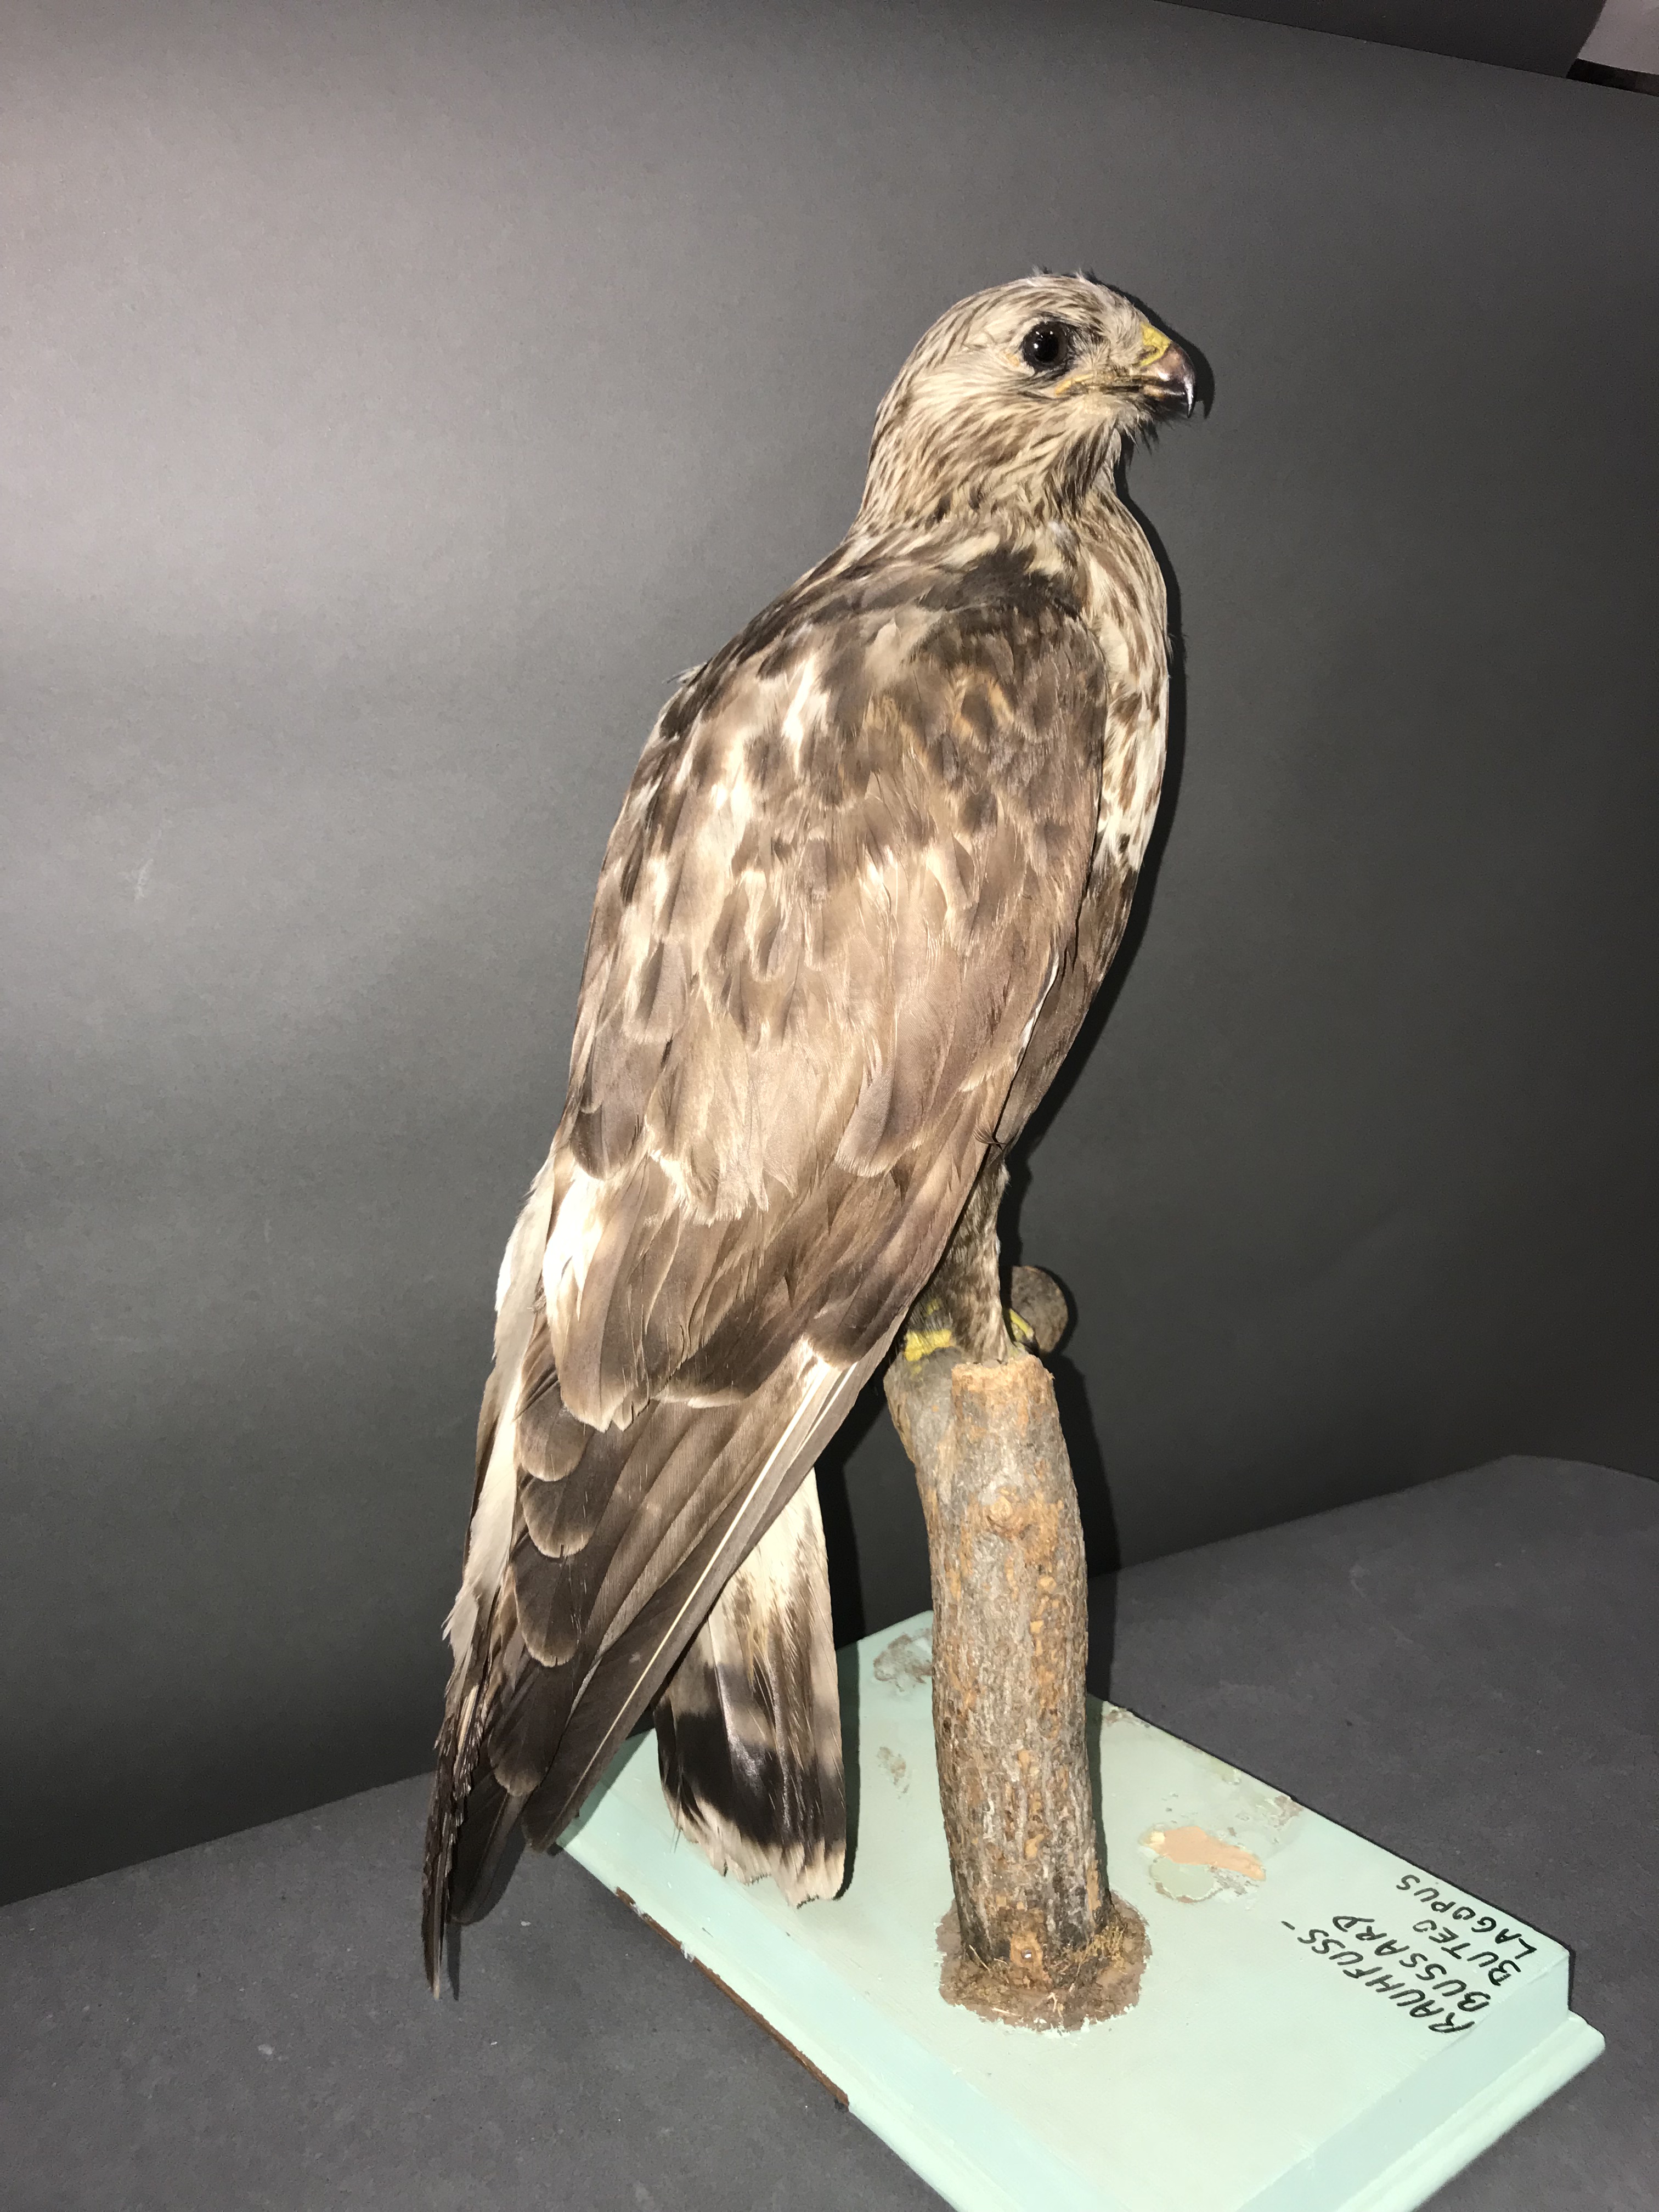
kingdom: Animalia
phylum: Chordata
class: Aves
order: Accipitriformes
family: Accipitridae
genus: Buteo
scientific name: Buteo lagopus
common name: Rough-legged buzzard
